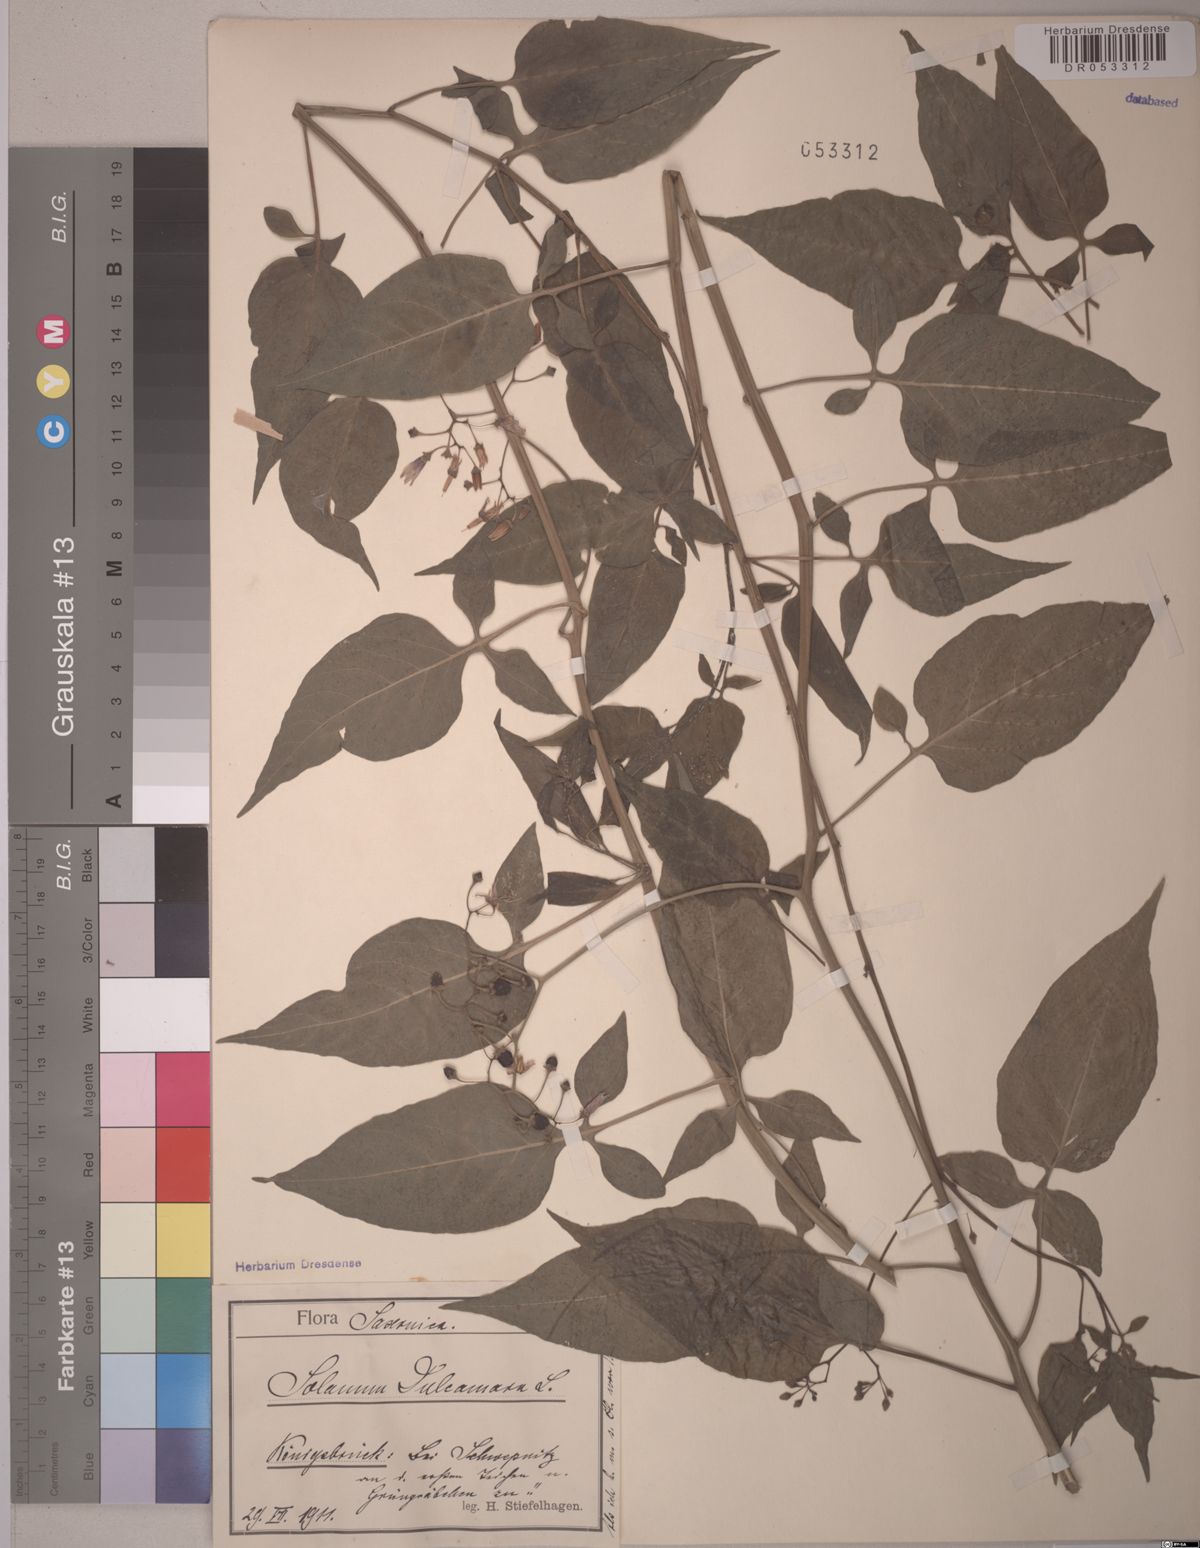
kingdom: Plantae
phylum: Tracheophyta
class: Magnoliopsida
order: Solanales
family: Solanaceae
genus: Solanum
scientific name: Solanum dulcamara
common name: Climbing nightshade
